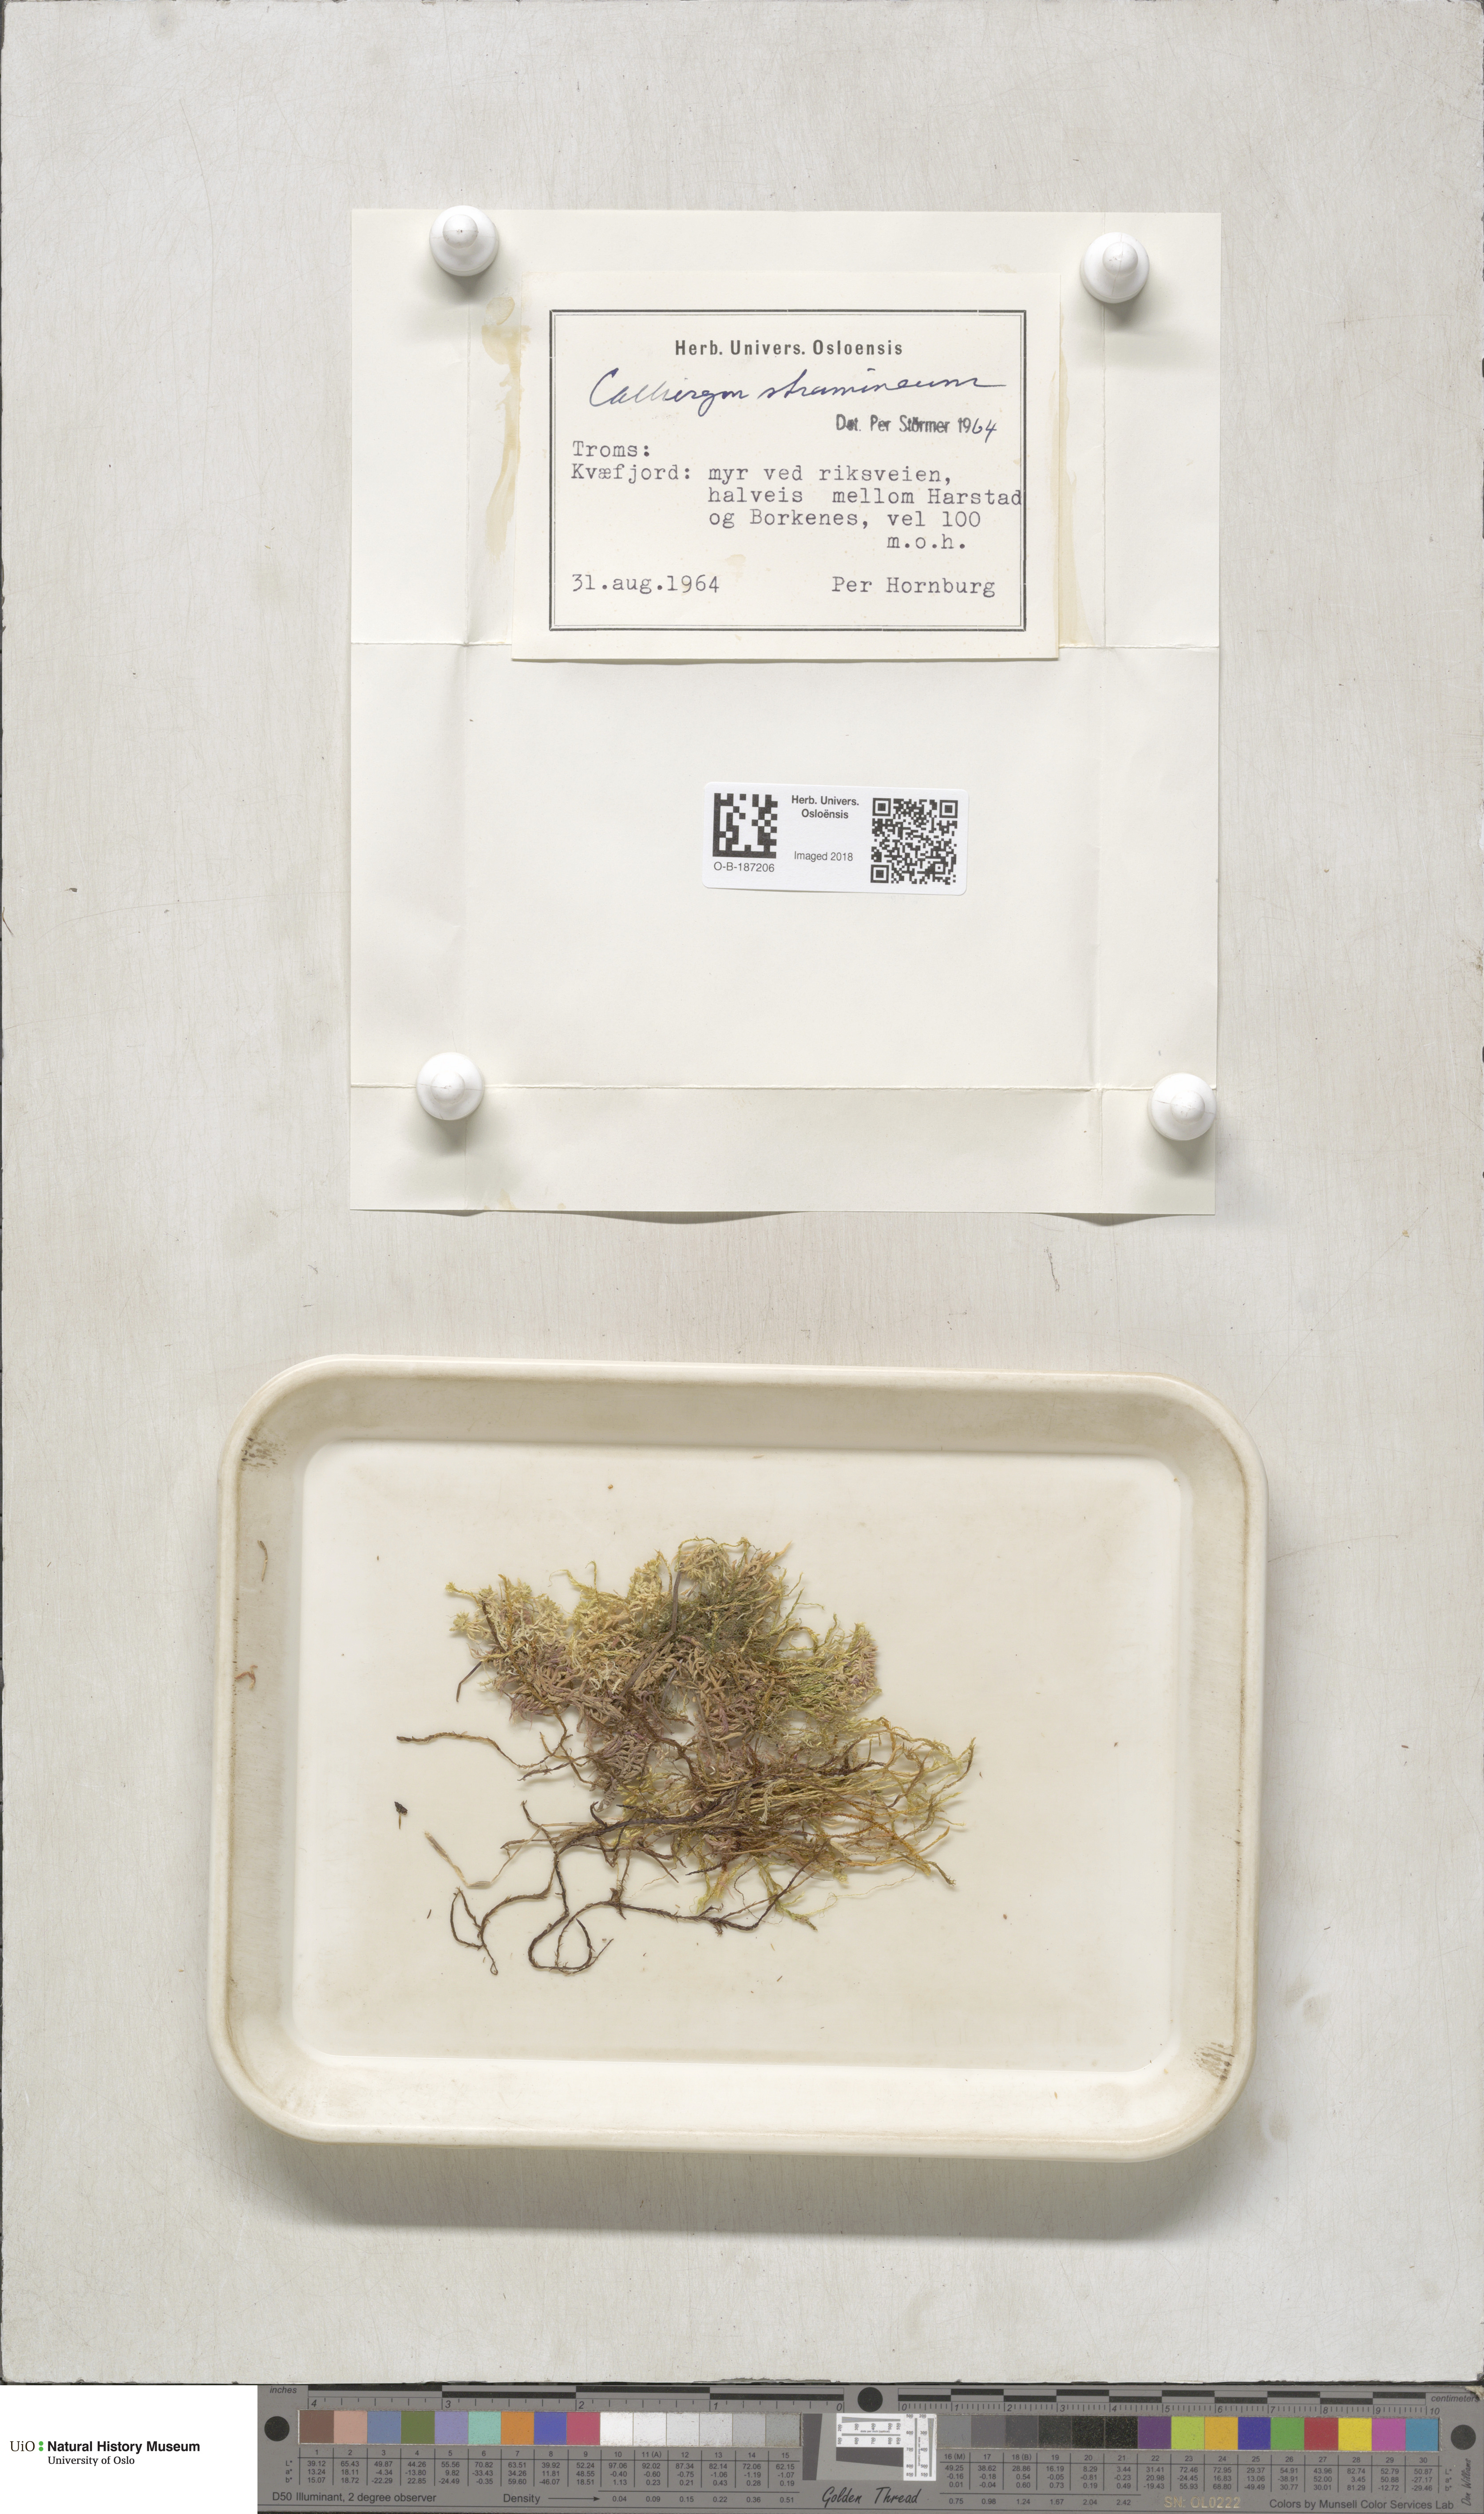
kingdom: Plantae
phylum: Bryophyta
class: Bryopsida
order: Hypnales
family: Calliergonaceae
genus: Straminergon
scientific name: Straminergon stramineum
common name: Straw moss
